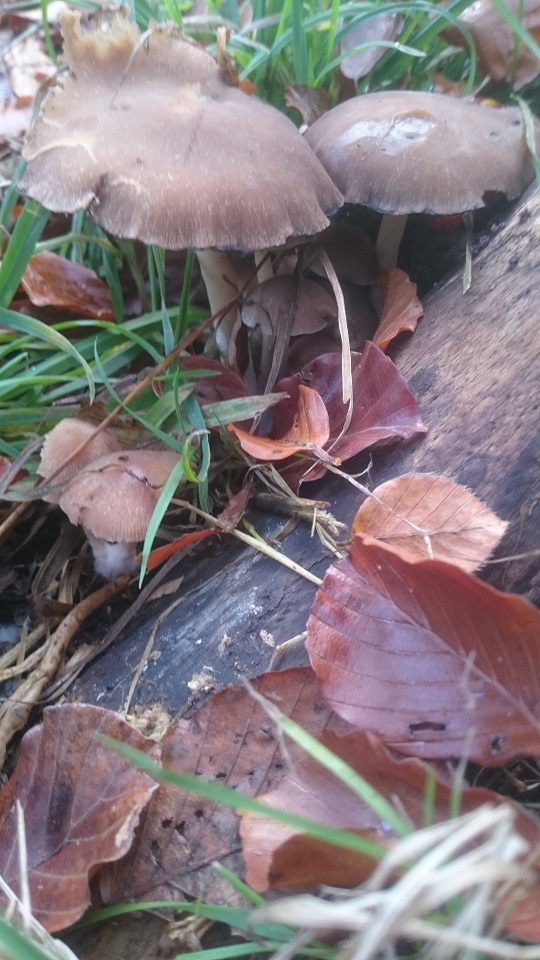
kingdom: Fungi
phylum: Basidiomycota
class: Agaricomycetes
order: Agaricales
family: Psathyrellaceae
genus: Psathyrella
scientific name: Psathyrella piluliformis
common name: lysstokket mørkhat
